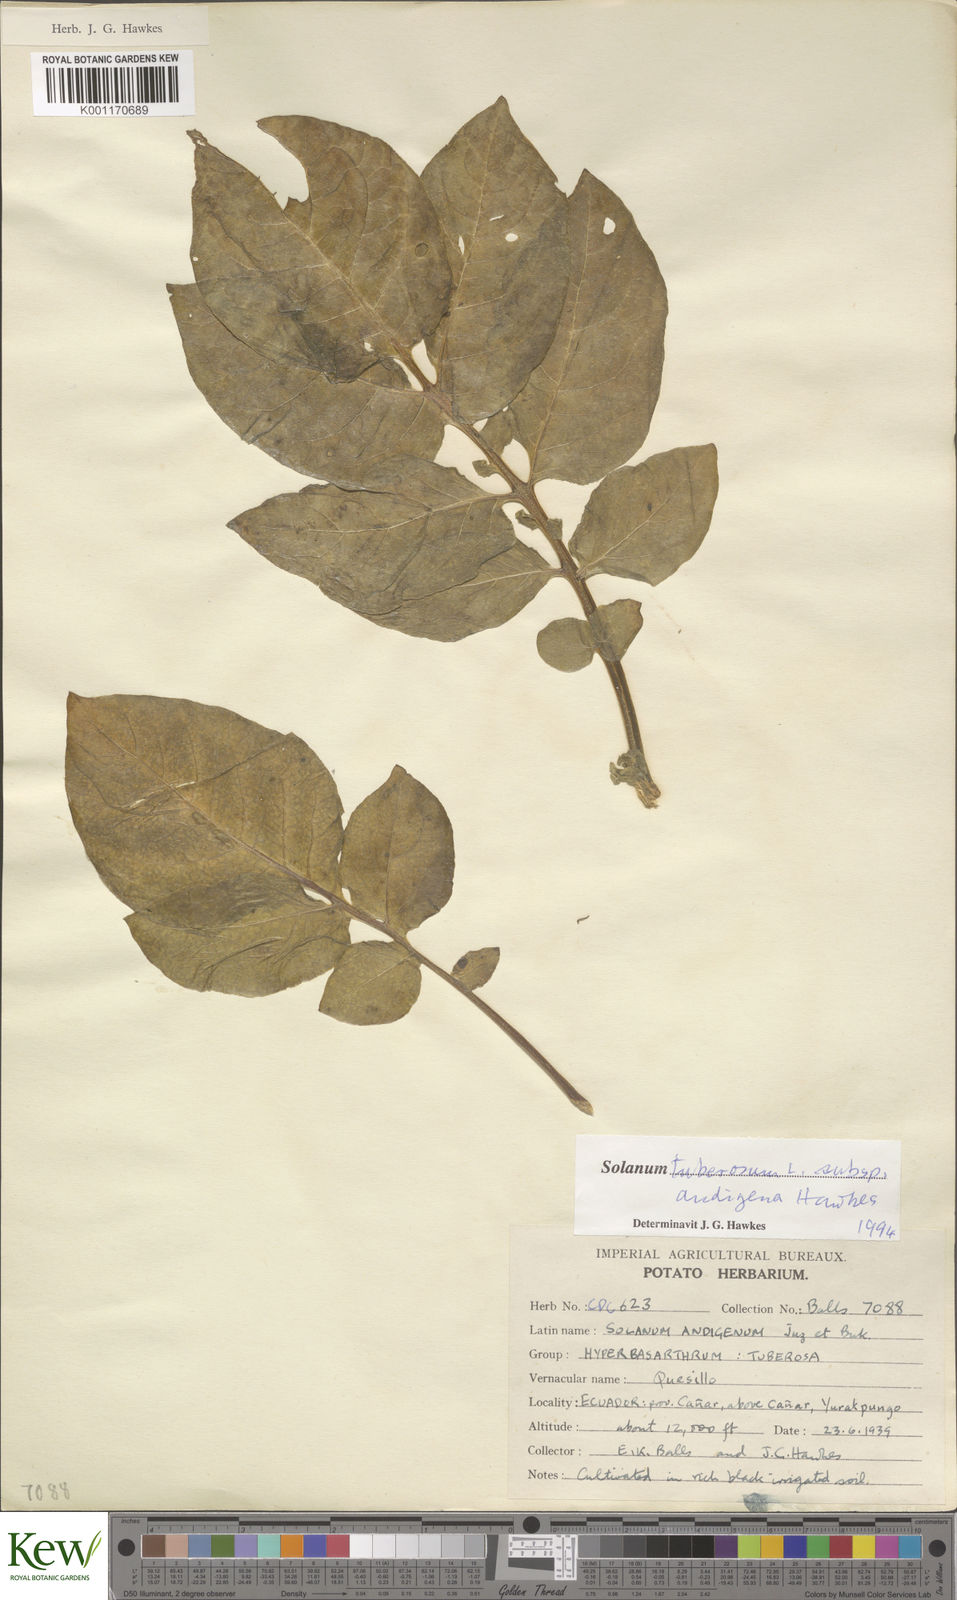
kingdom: Plantae
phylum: Tracheophyta
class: Magnoliopsida
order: Solanales
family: Solanaceae
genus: Solanum
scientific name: Solanum tuberosum
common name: Potato
